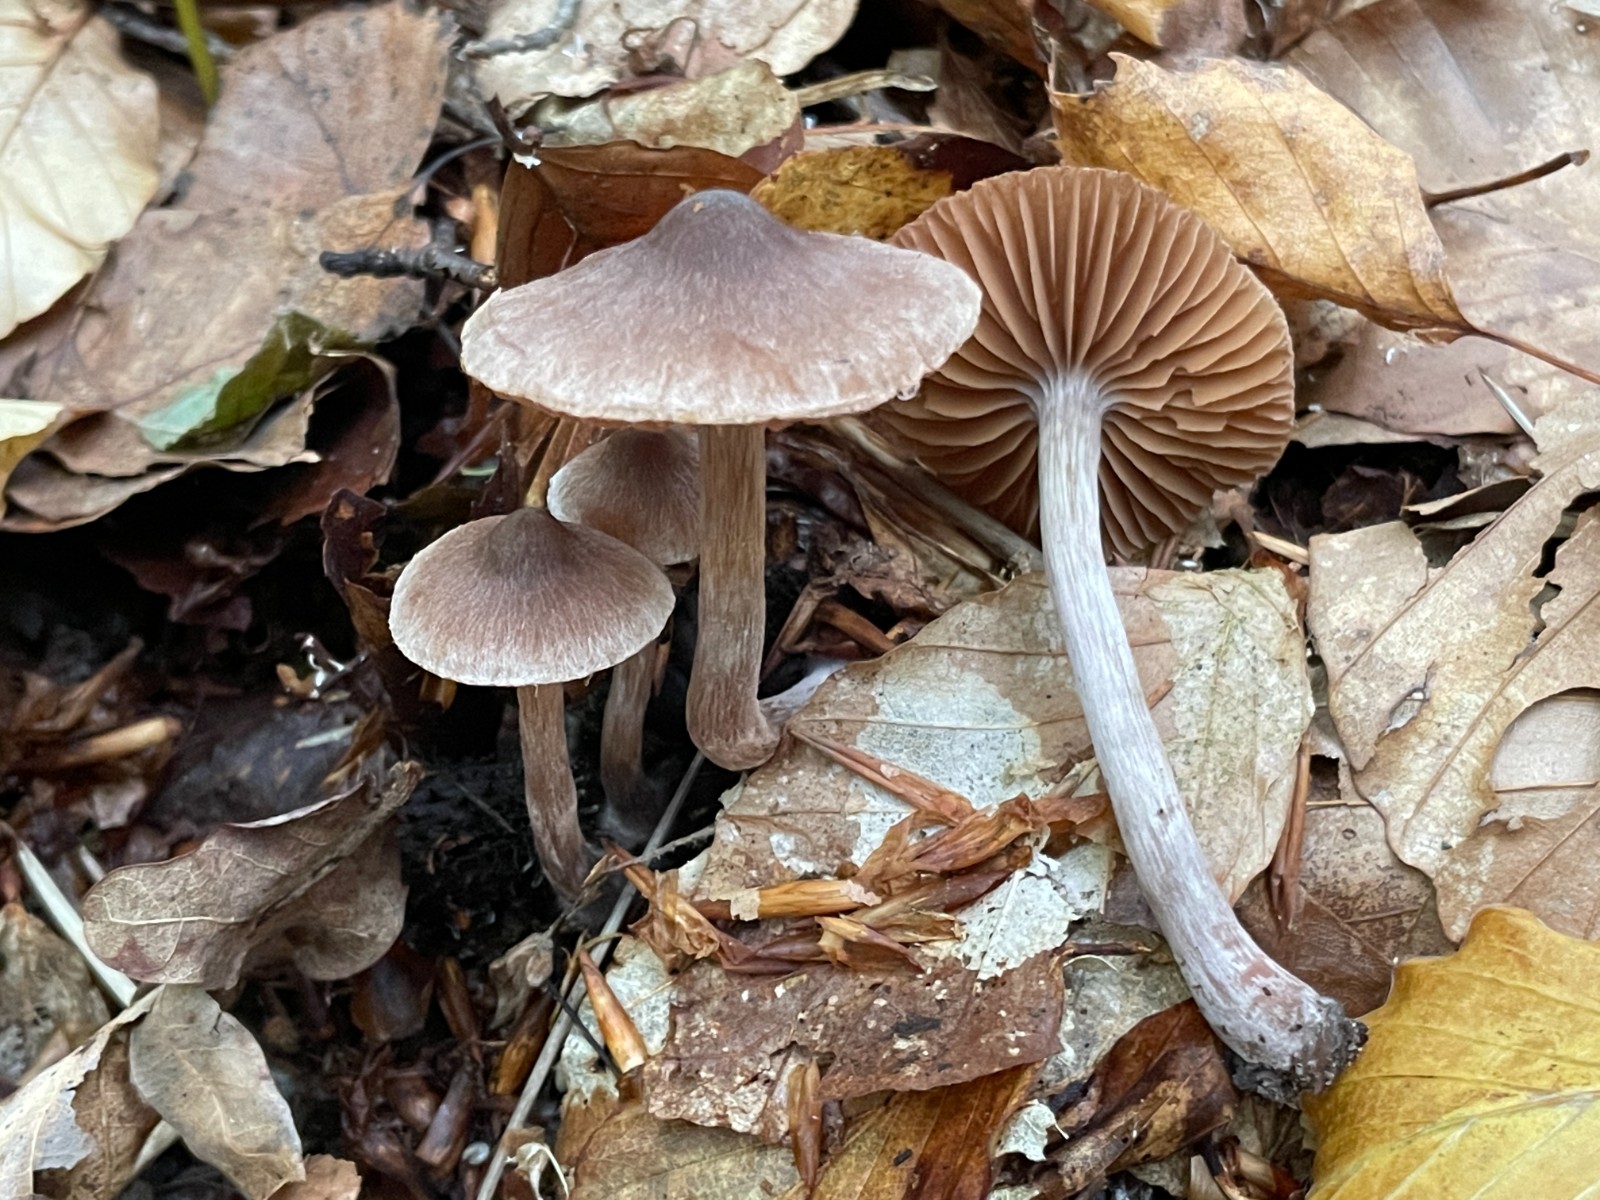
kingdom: Fungi
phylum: Basidiomycota
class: Agaricomycetes
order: Agaricales
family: Cortinariaceae
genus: Cortinarius
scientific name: Cortinarius hirtus
